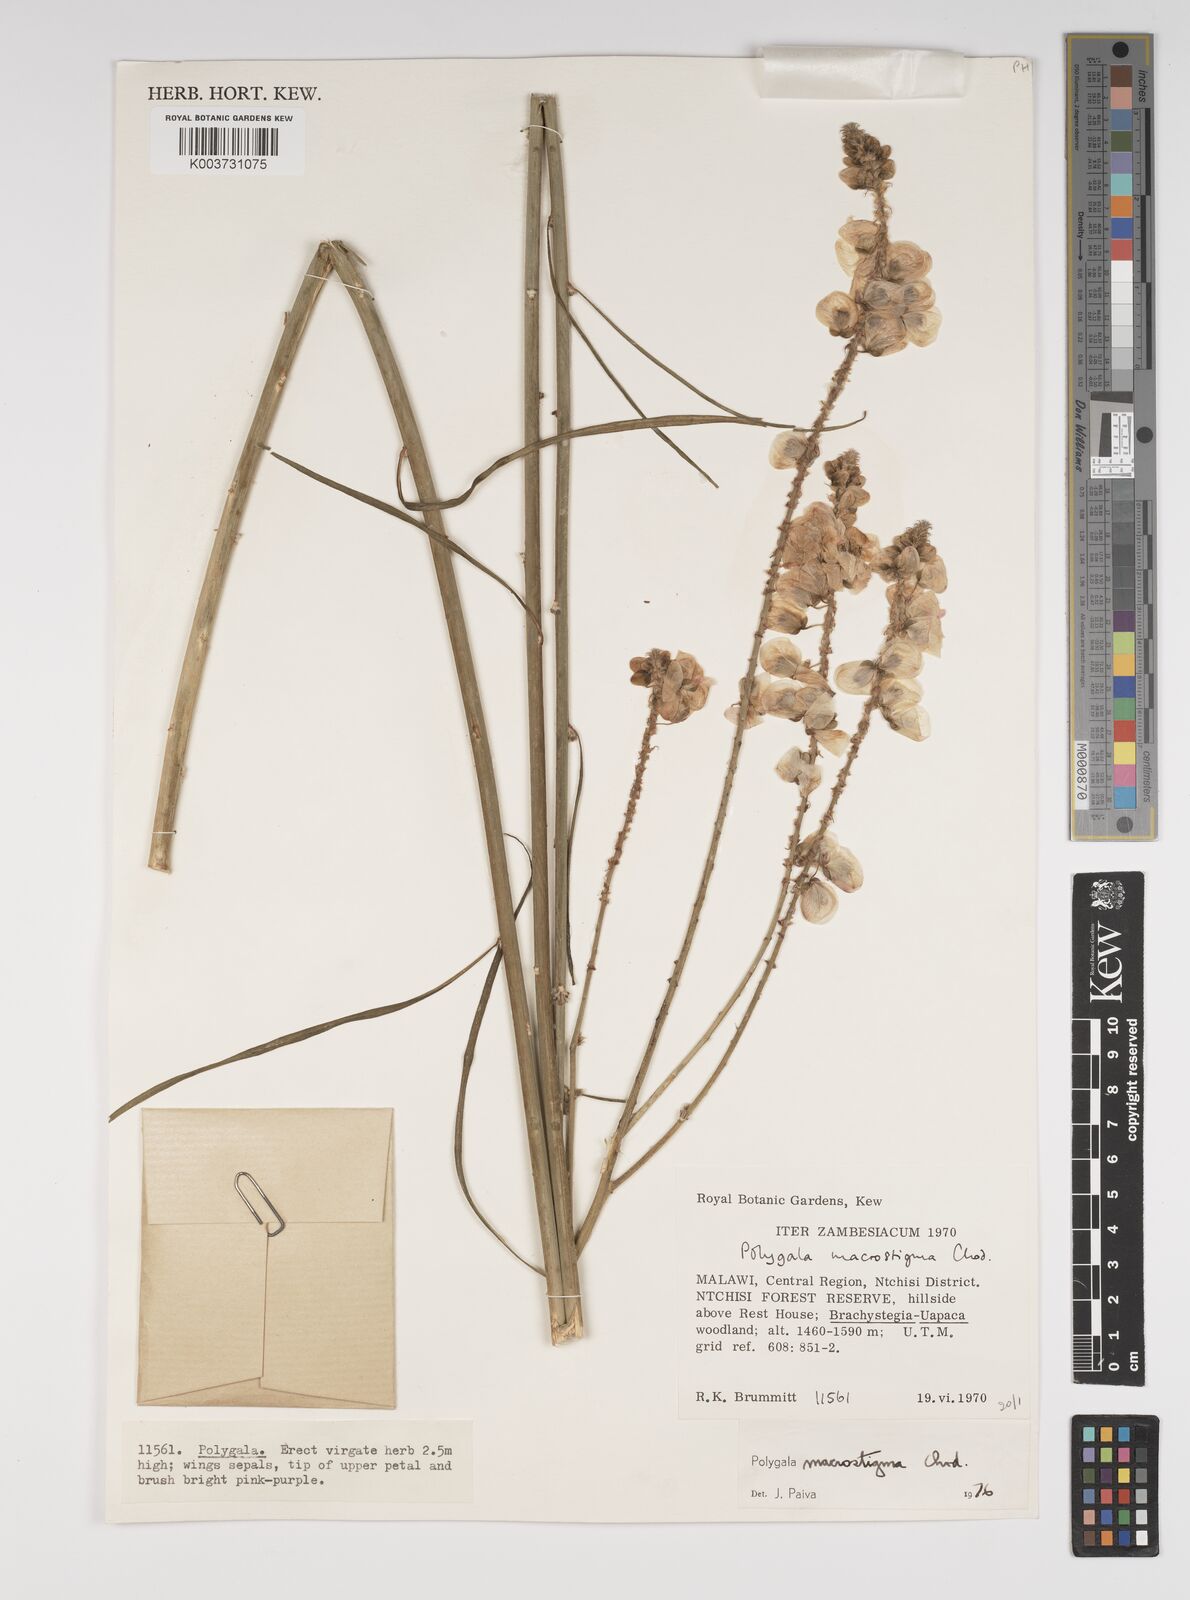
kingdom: Plantae
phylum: Tracheophyta
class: Magnoliopsida
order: Fabales
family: Polygalaceae
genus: Polygala
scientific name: Polygala macrostigma
